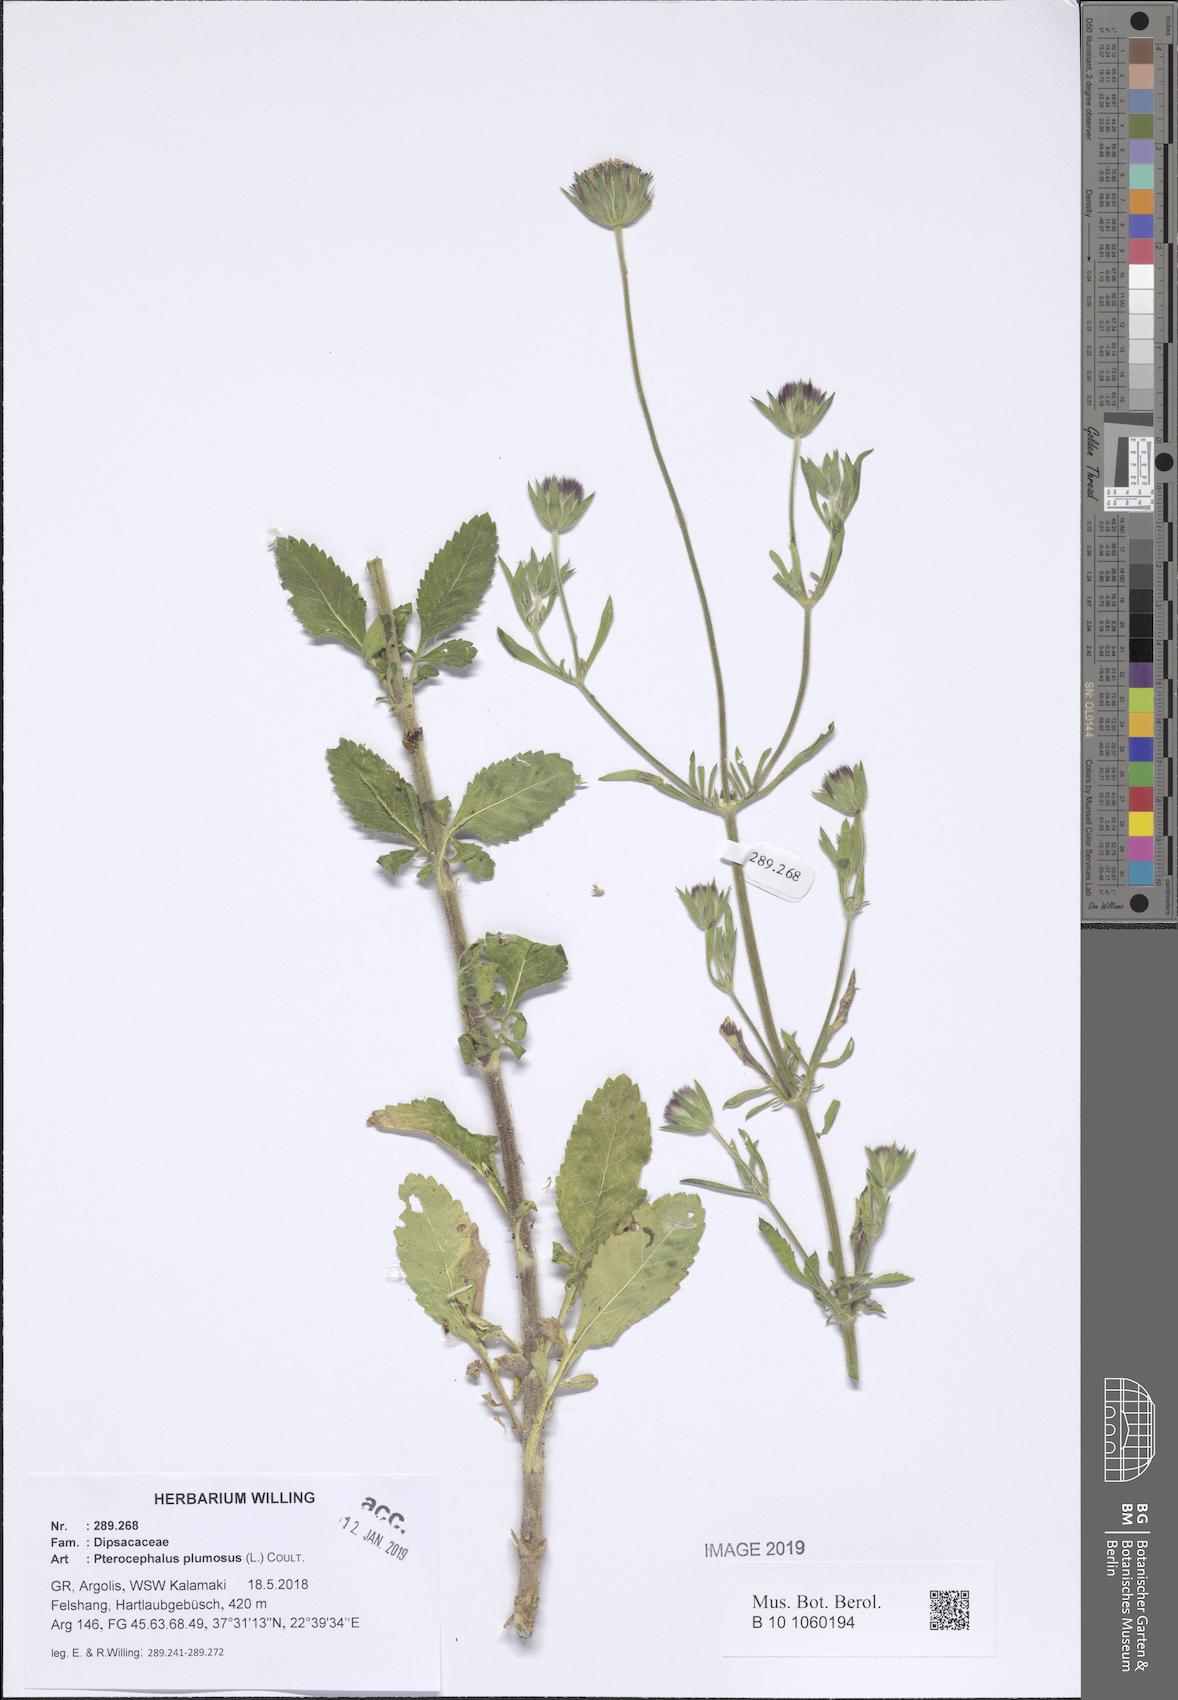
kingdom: Plantae
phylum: Tracheophyta
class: Magnoliopsida
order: Dipsacales
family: Caprifoliaceae
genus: Pterocephalus
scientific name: Pterocephalus plumosus
